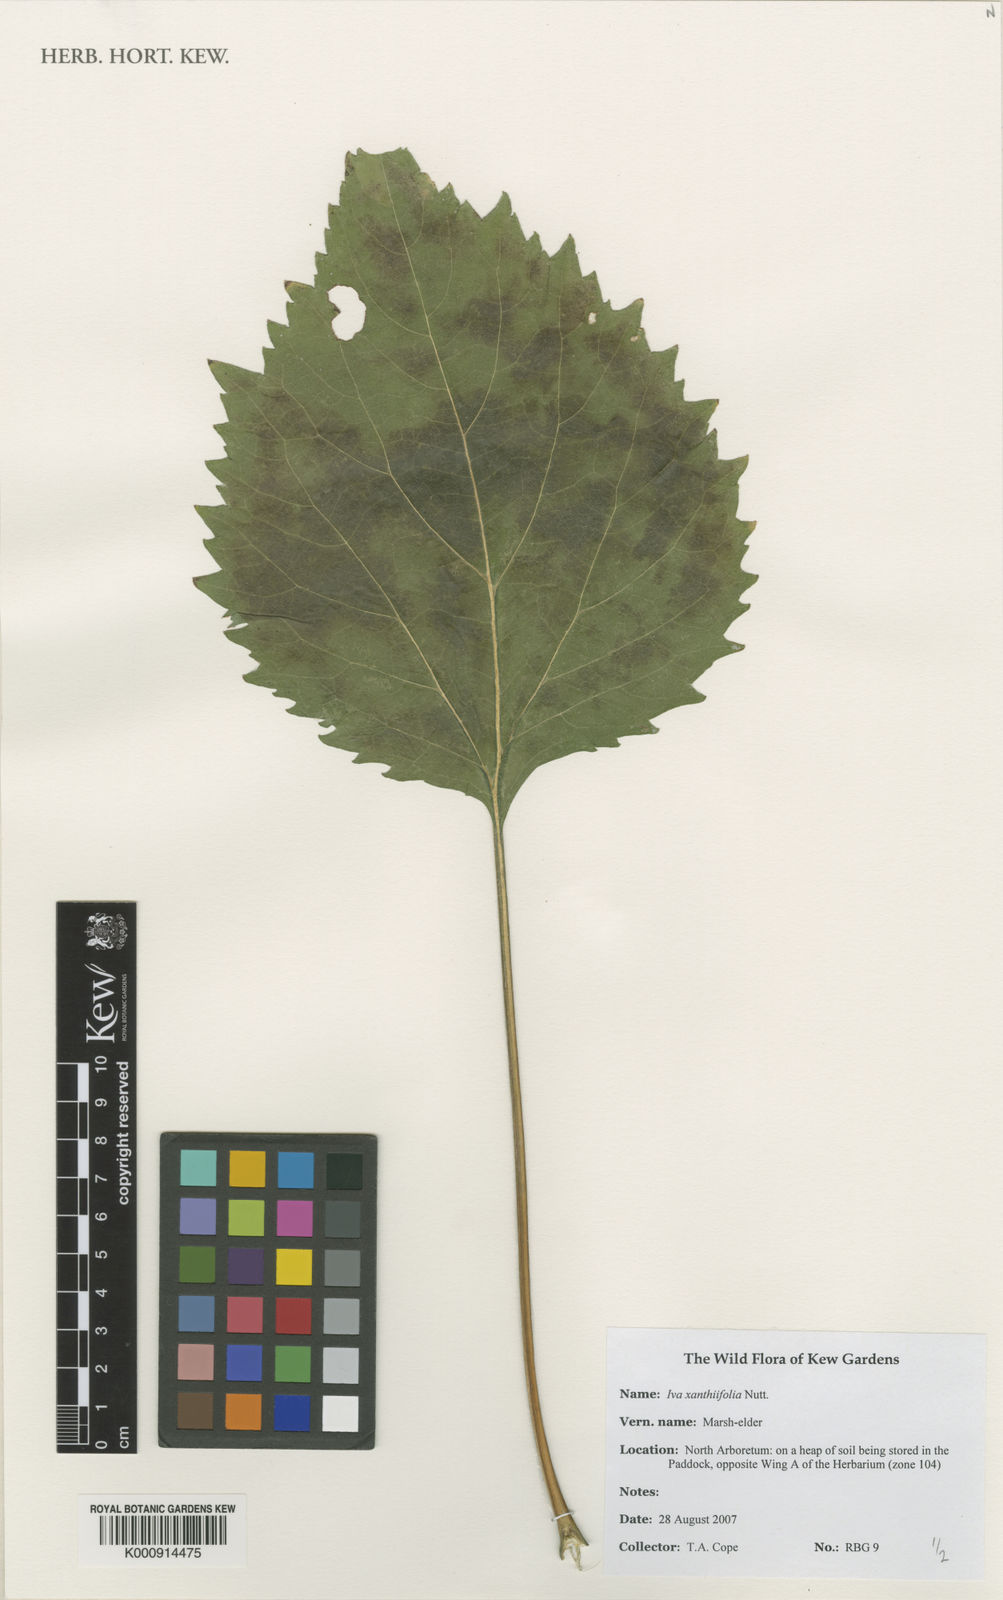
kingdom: Plantae
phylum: Tracheophyta
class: Magnoliopsida
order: Asterales
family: Asteraceae
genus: Cyclachaena
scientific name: Cyclachaena xanthiifolia
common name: Giant sumpweed
